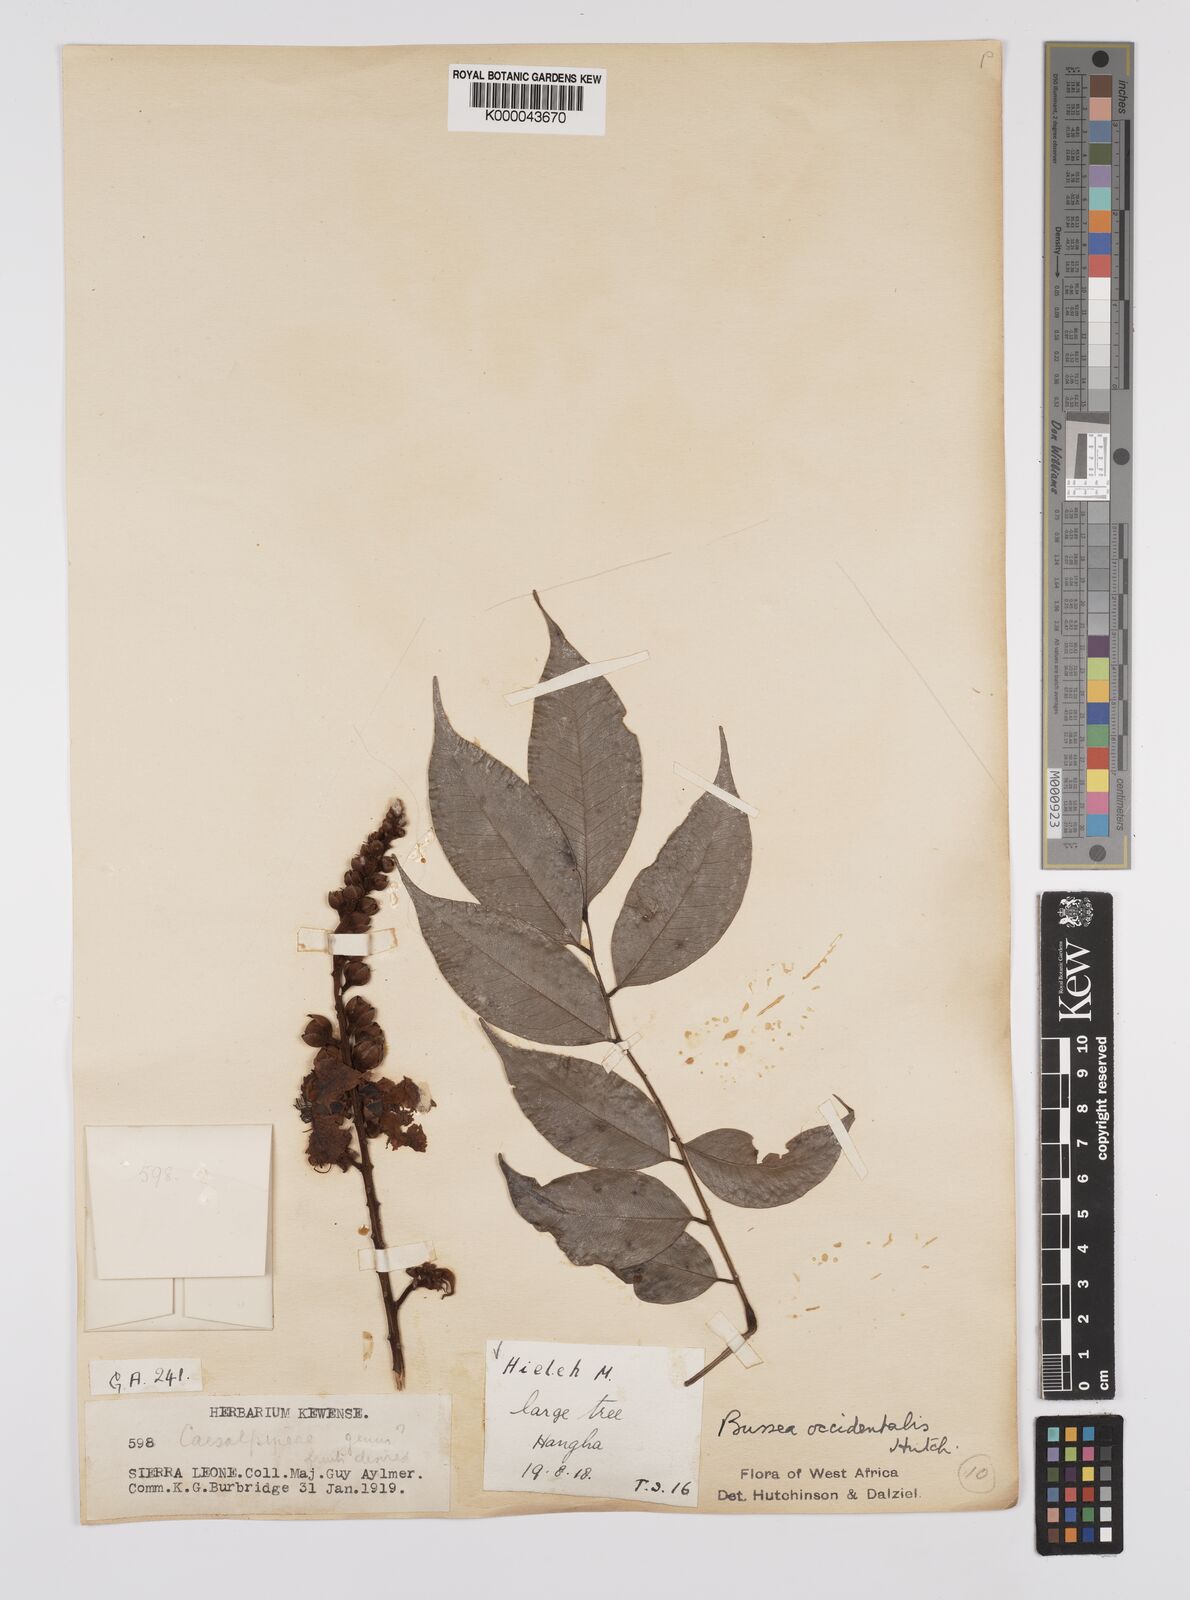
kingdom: Plantae
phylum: Tracheophyta
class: Magnoliopsida
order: Fabales
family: Fabaceae
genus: Bussea
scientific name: Bussea occidentalis
